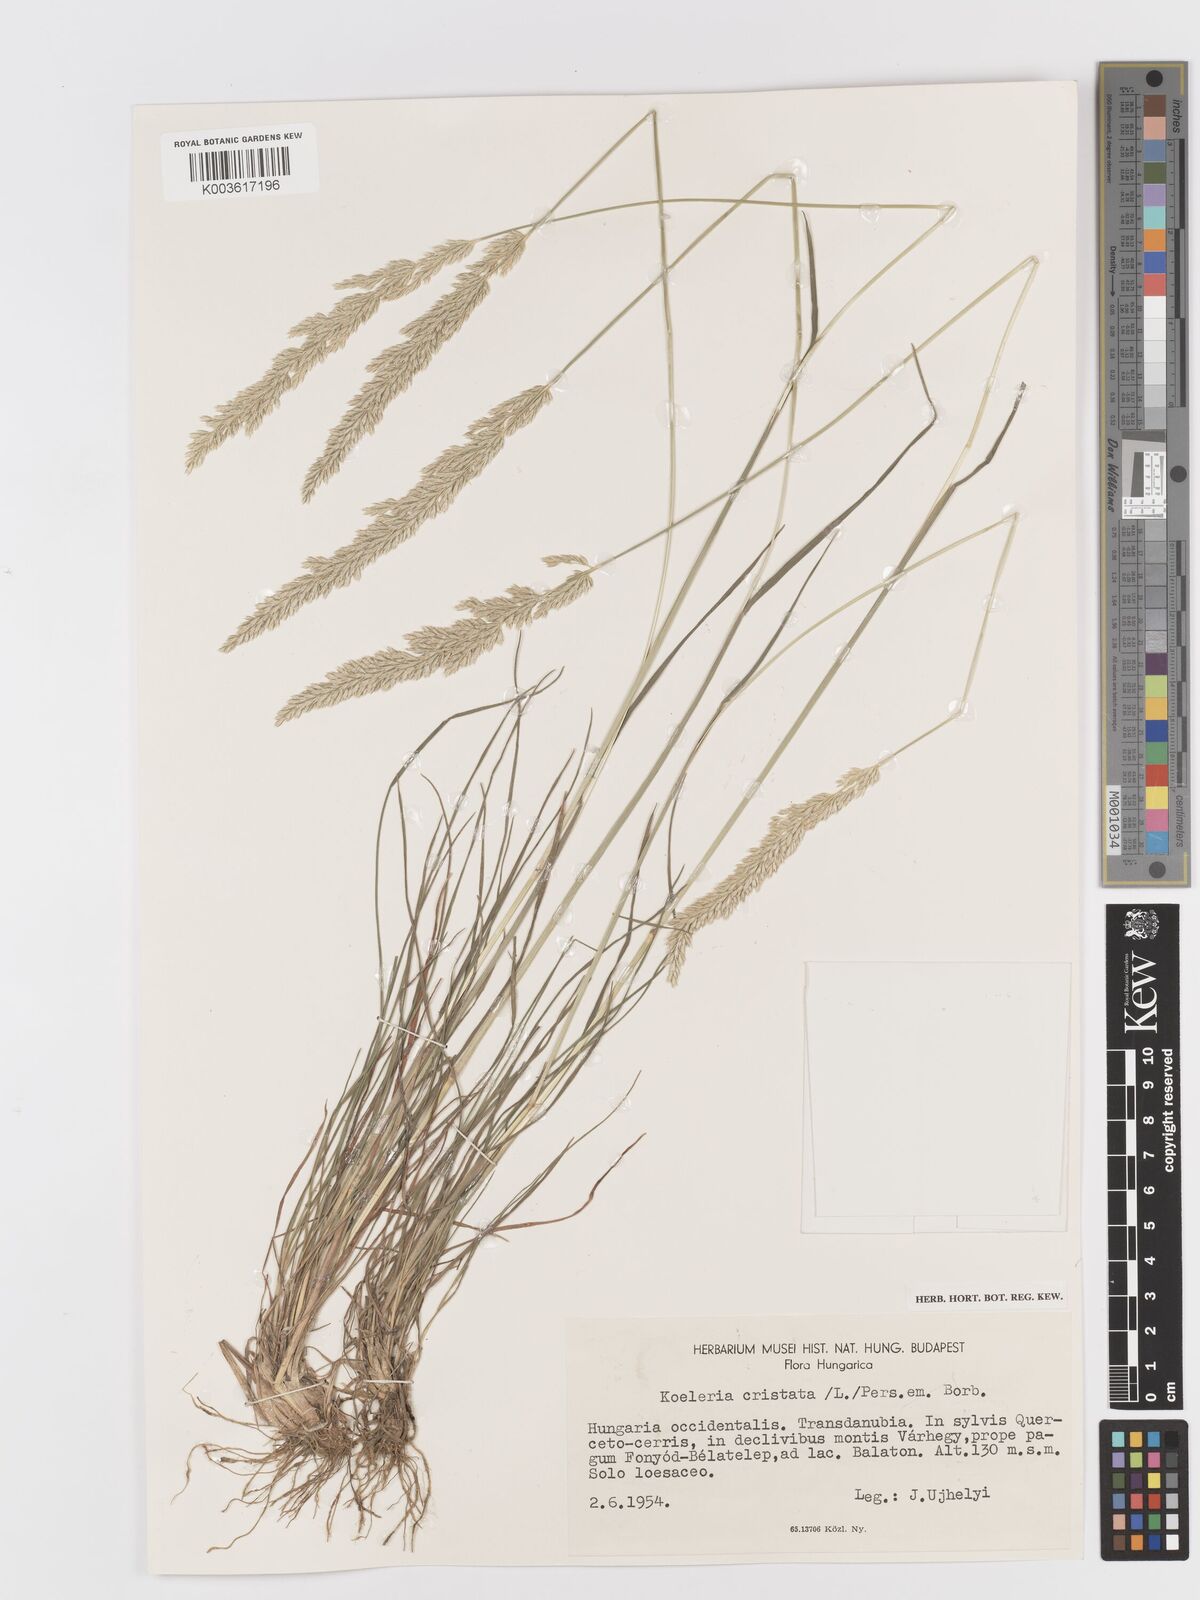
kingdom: Plantae
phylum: Tracheophyta
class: Liliopsida
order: Poales
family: Poaceae
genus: Koeleria
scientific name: Koeleria
